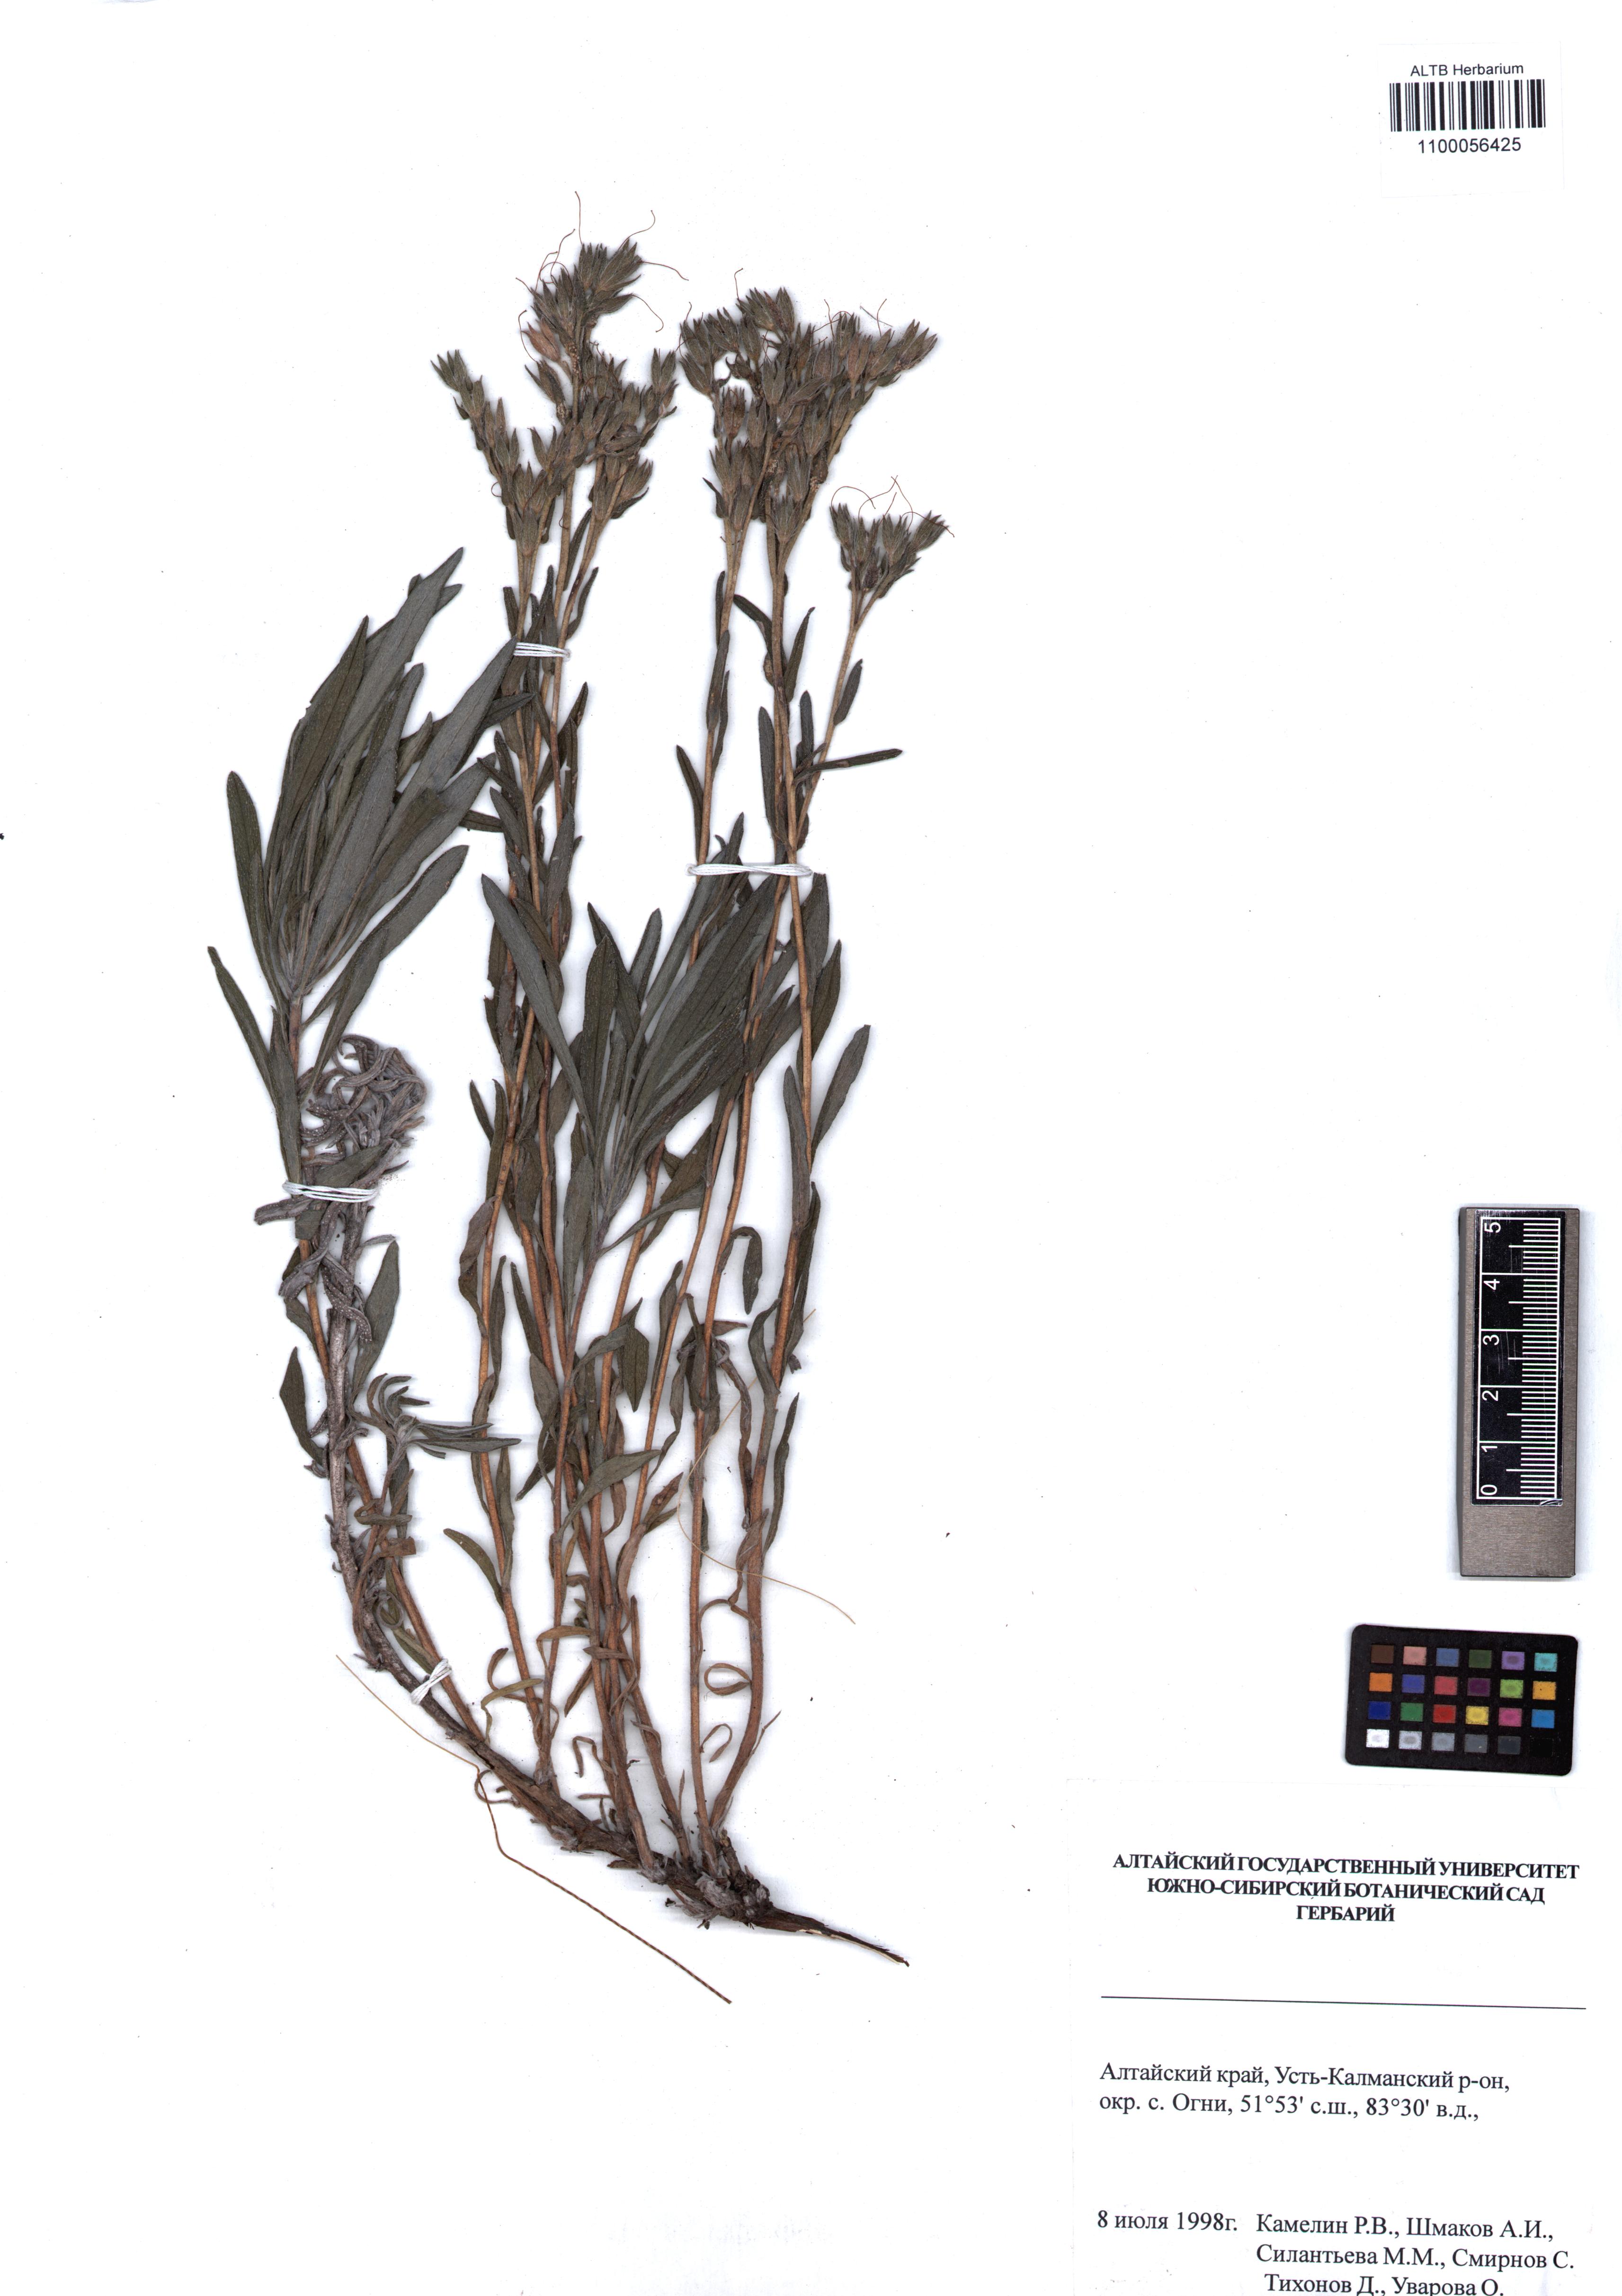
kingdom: Plantae
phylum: Tracheophyta
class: Magnoliopsida
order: Boraginales
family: Boraginaceae
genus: Onosma
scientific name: Onosma simplicissima
